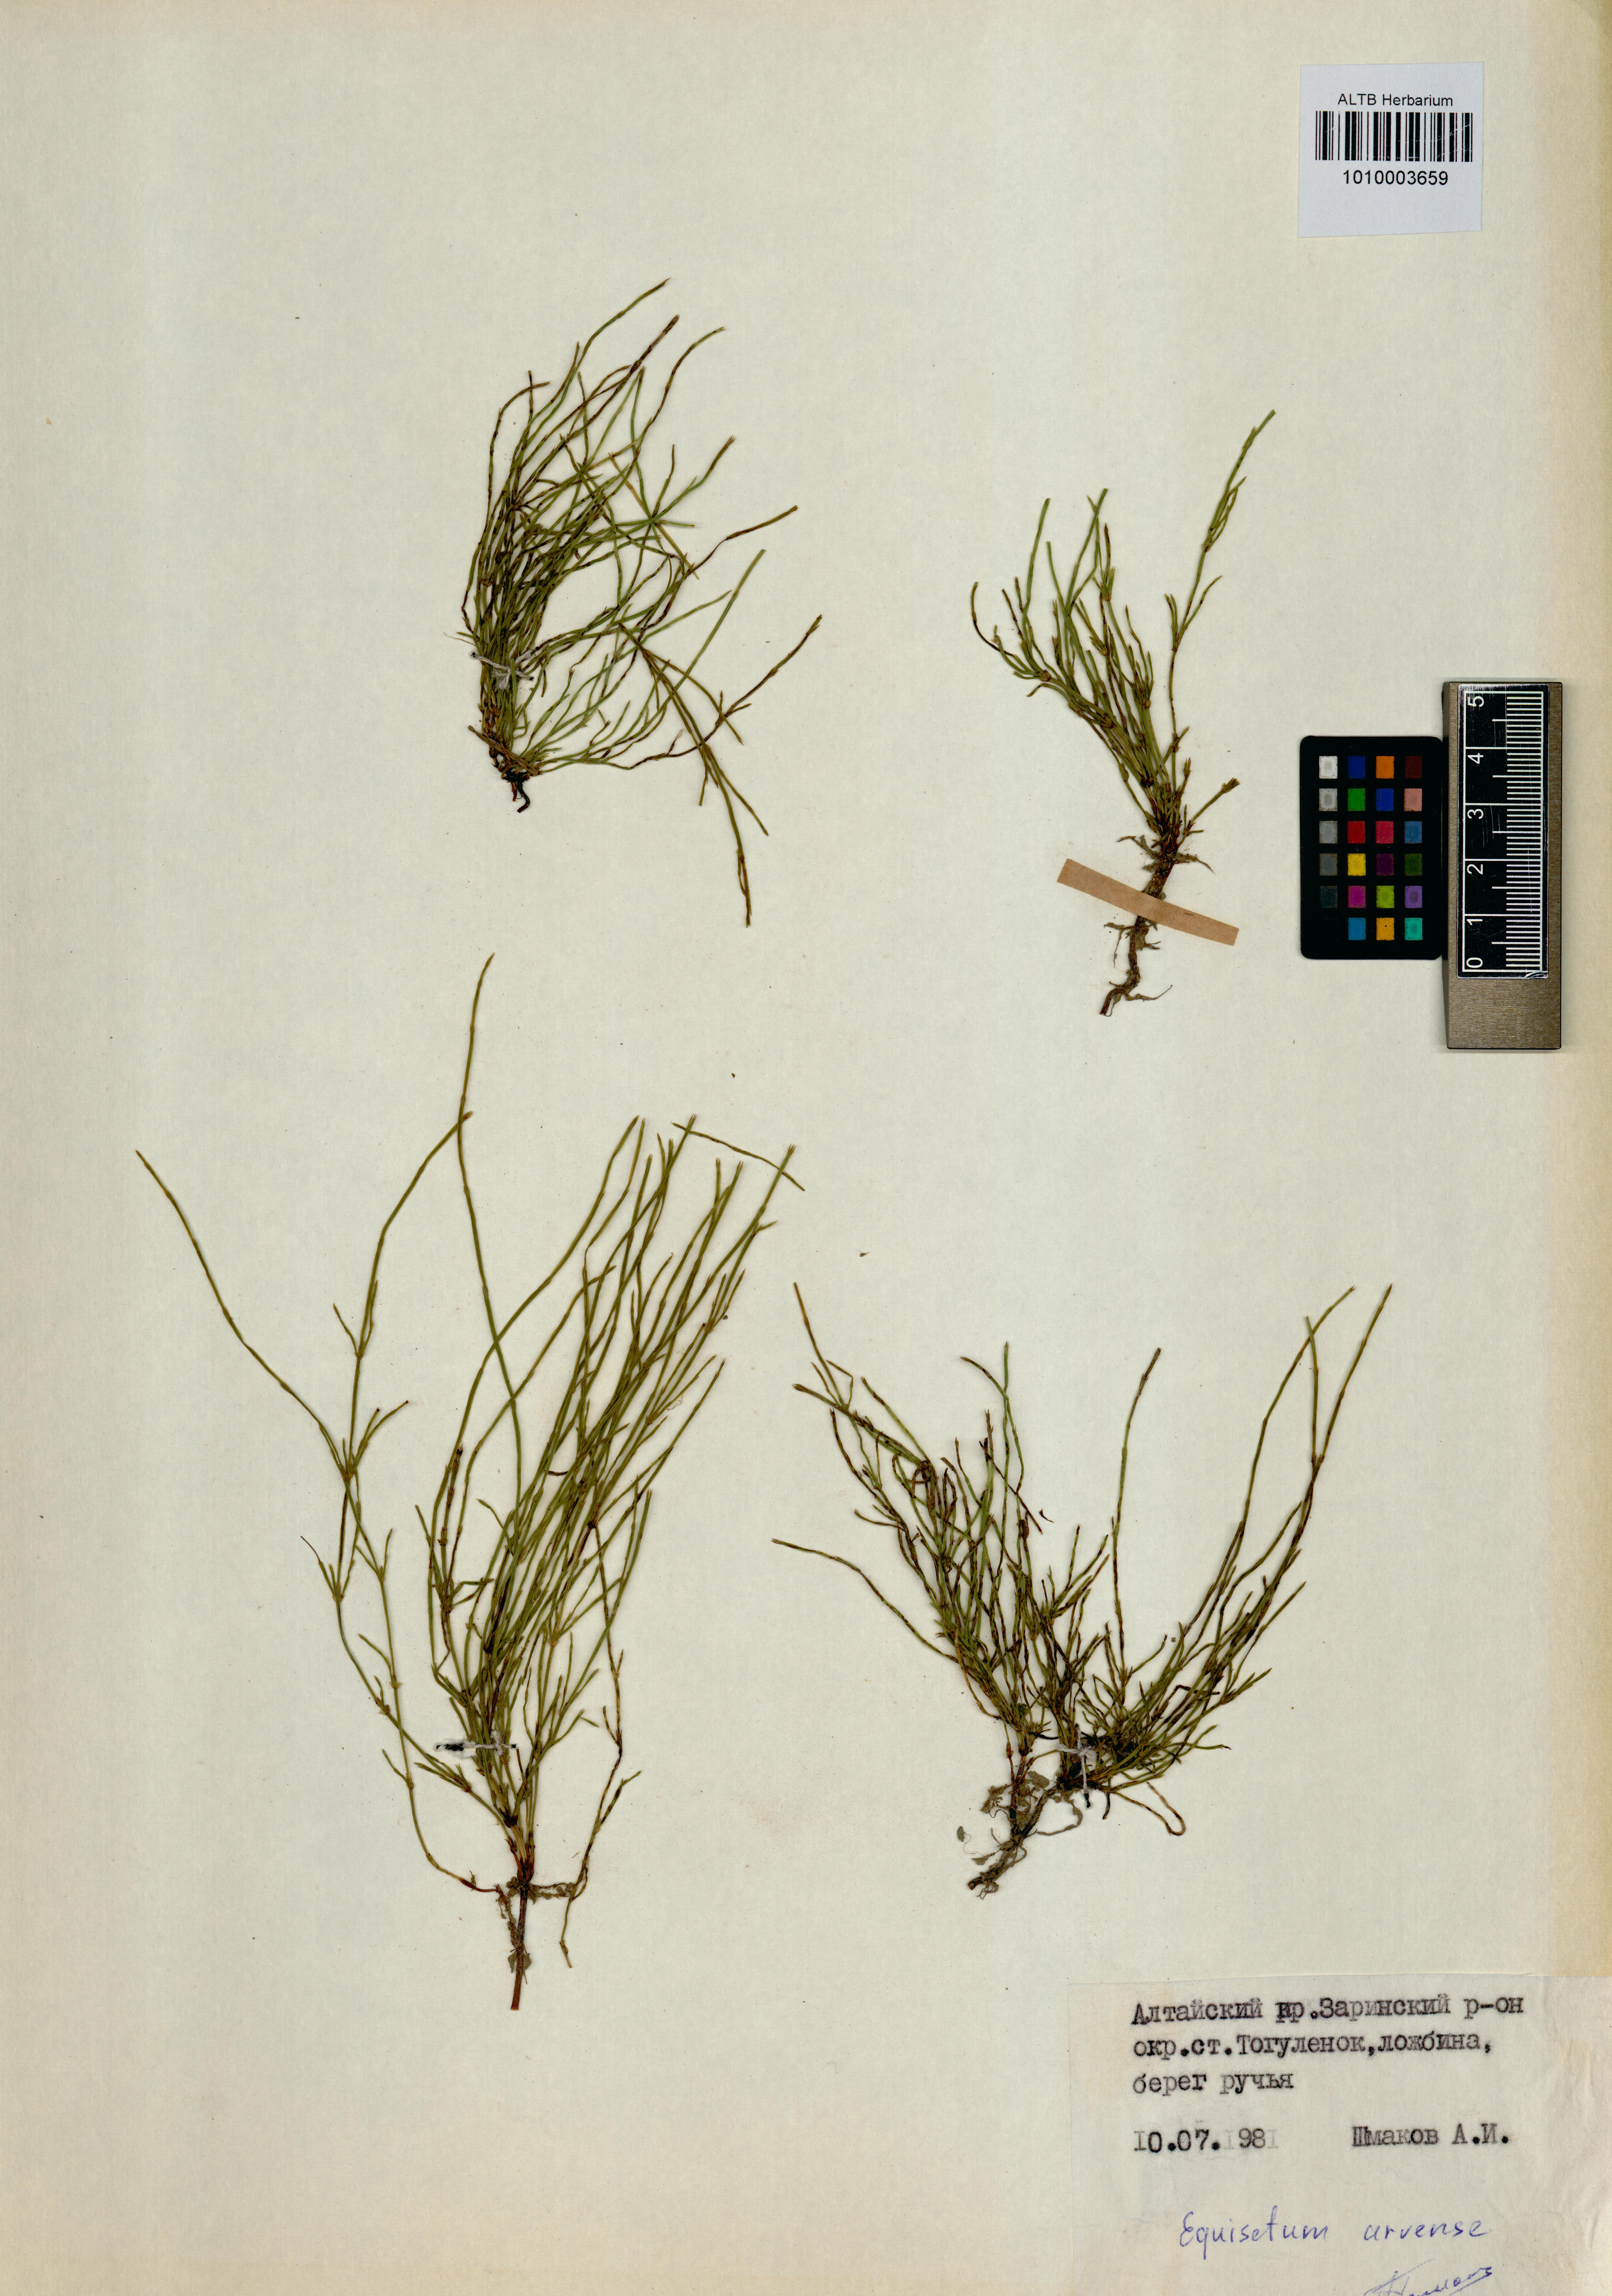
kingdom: Plantae
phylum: Tracheophyta
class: Polypodiopsida
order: Equisetales
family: Equisetaceae
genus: Equisetum
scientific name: Equisetum arvense
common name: Field horsetail
